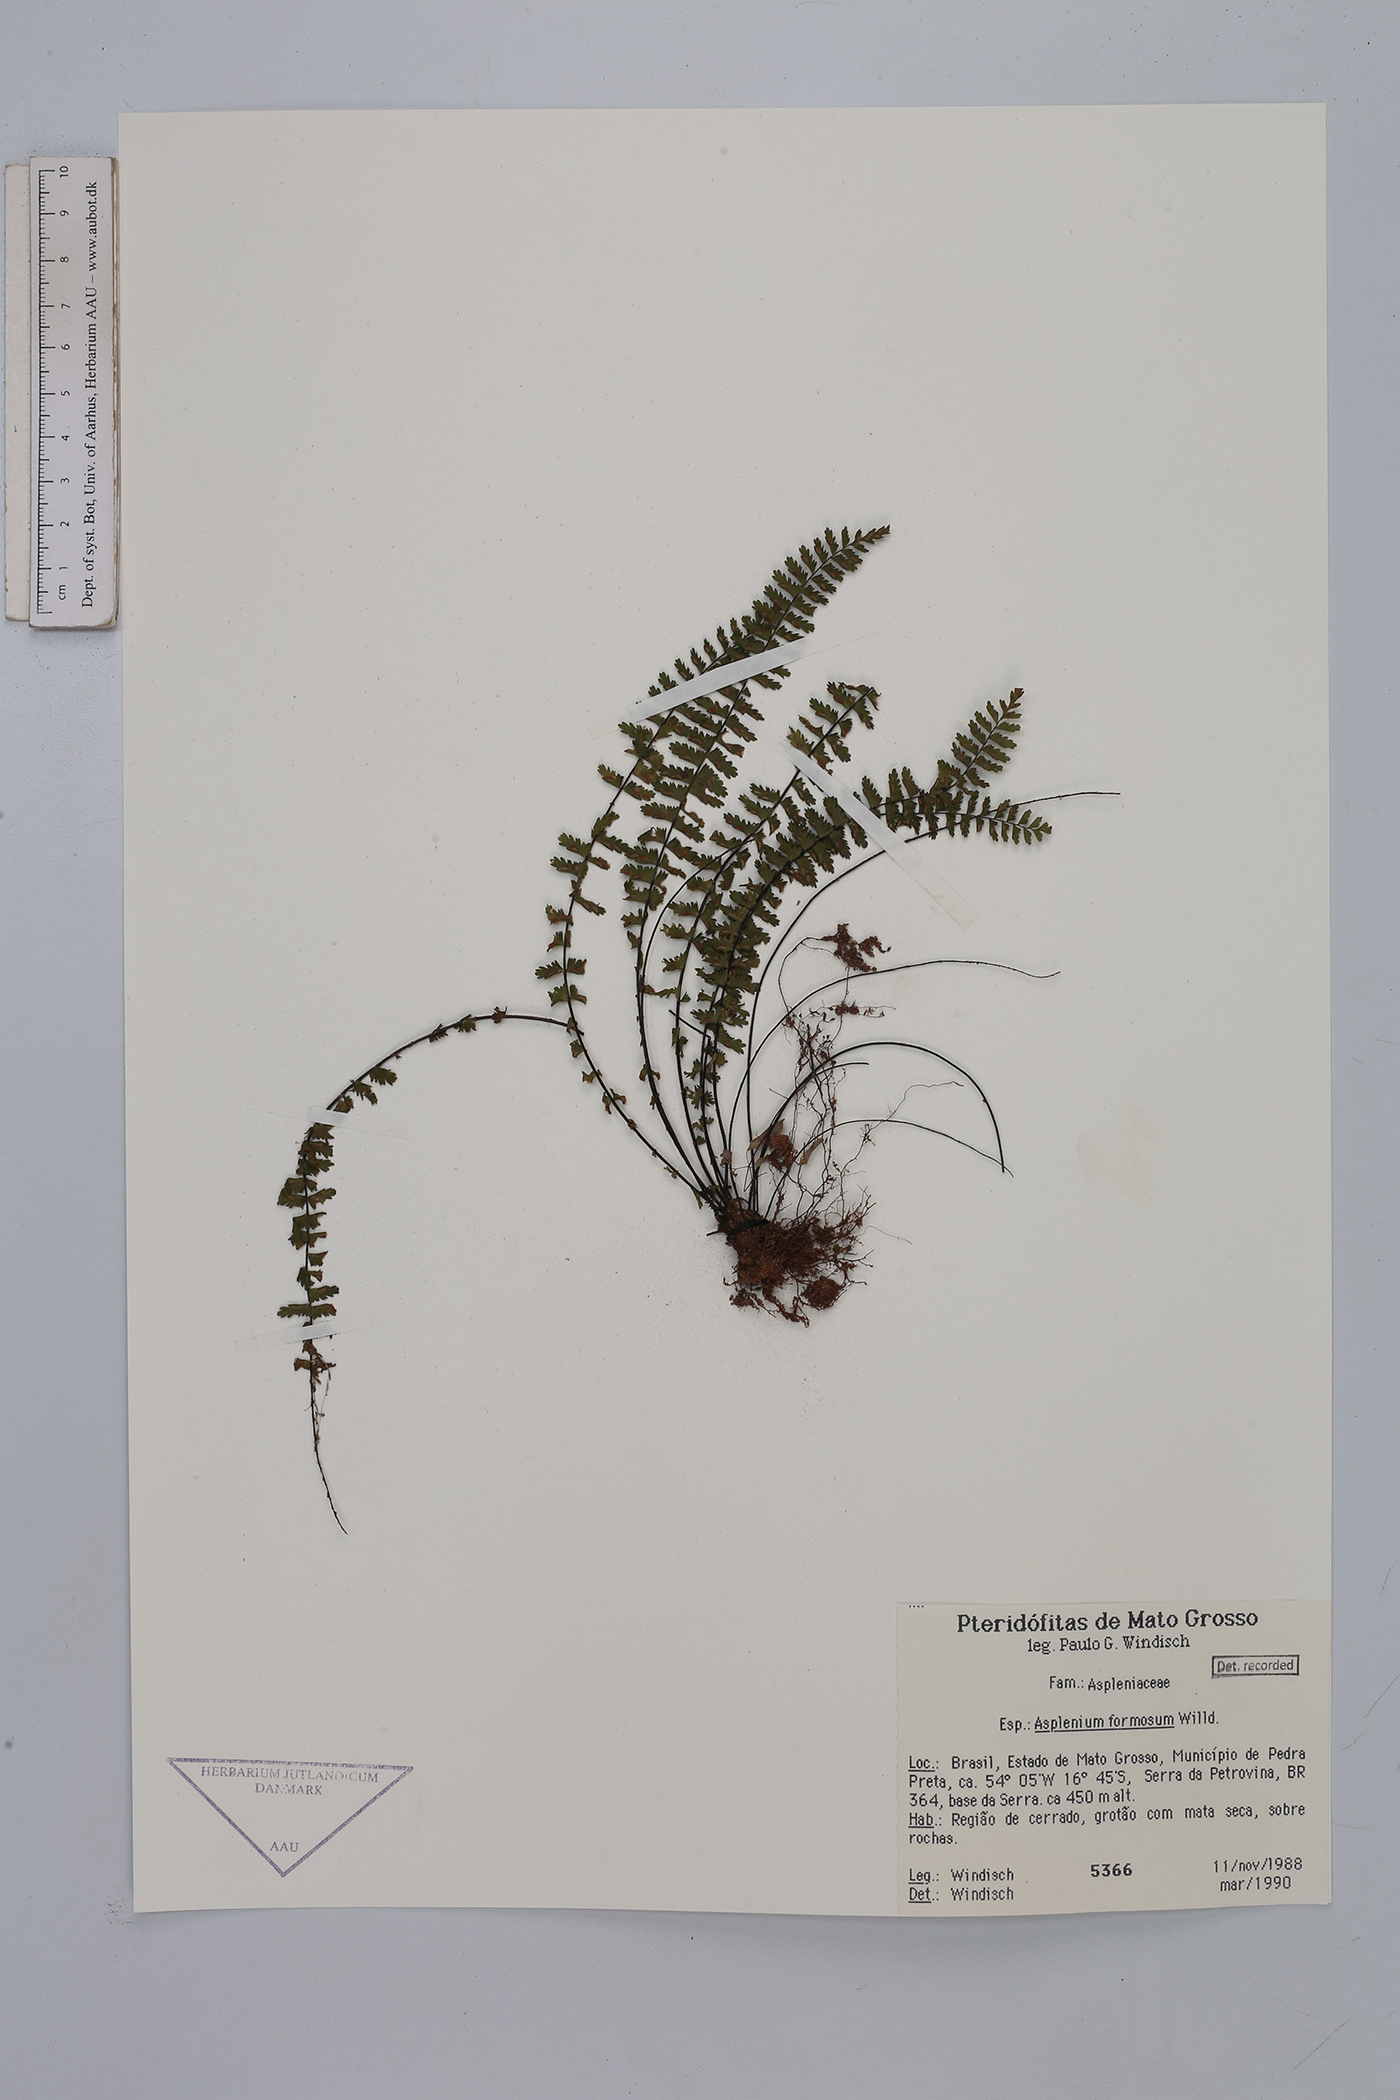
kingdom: Plantae
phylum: Tracheophyta
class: Polypodiopsida
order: Polypodiales
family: Aspleniaceae
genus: Asplenium
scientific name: Asplenium formosum
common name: Showy spleenwort
